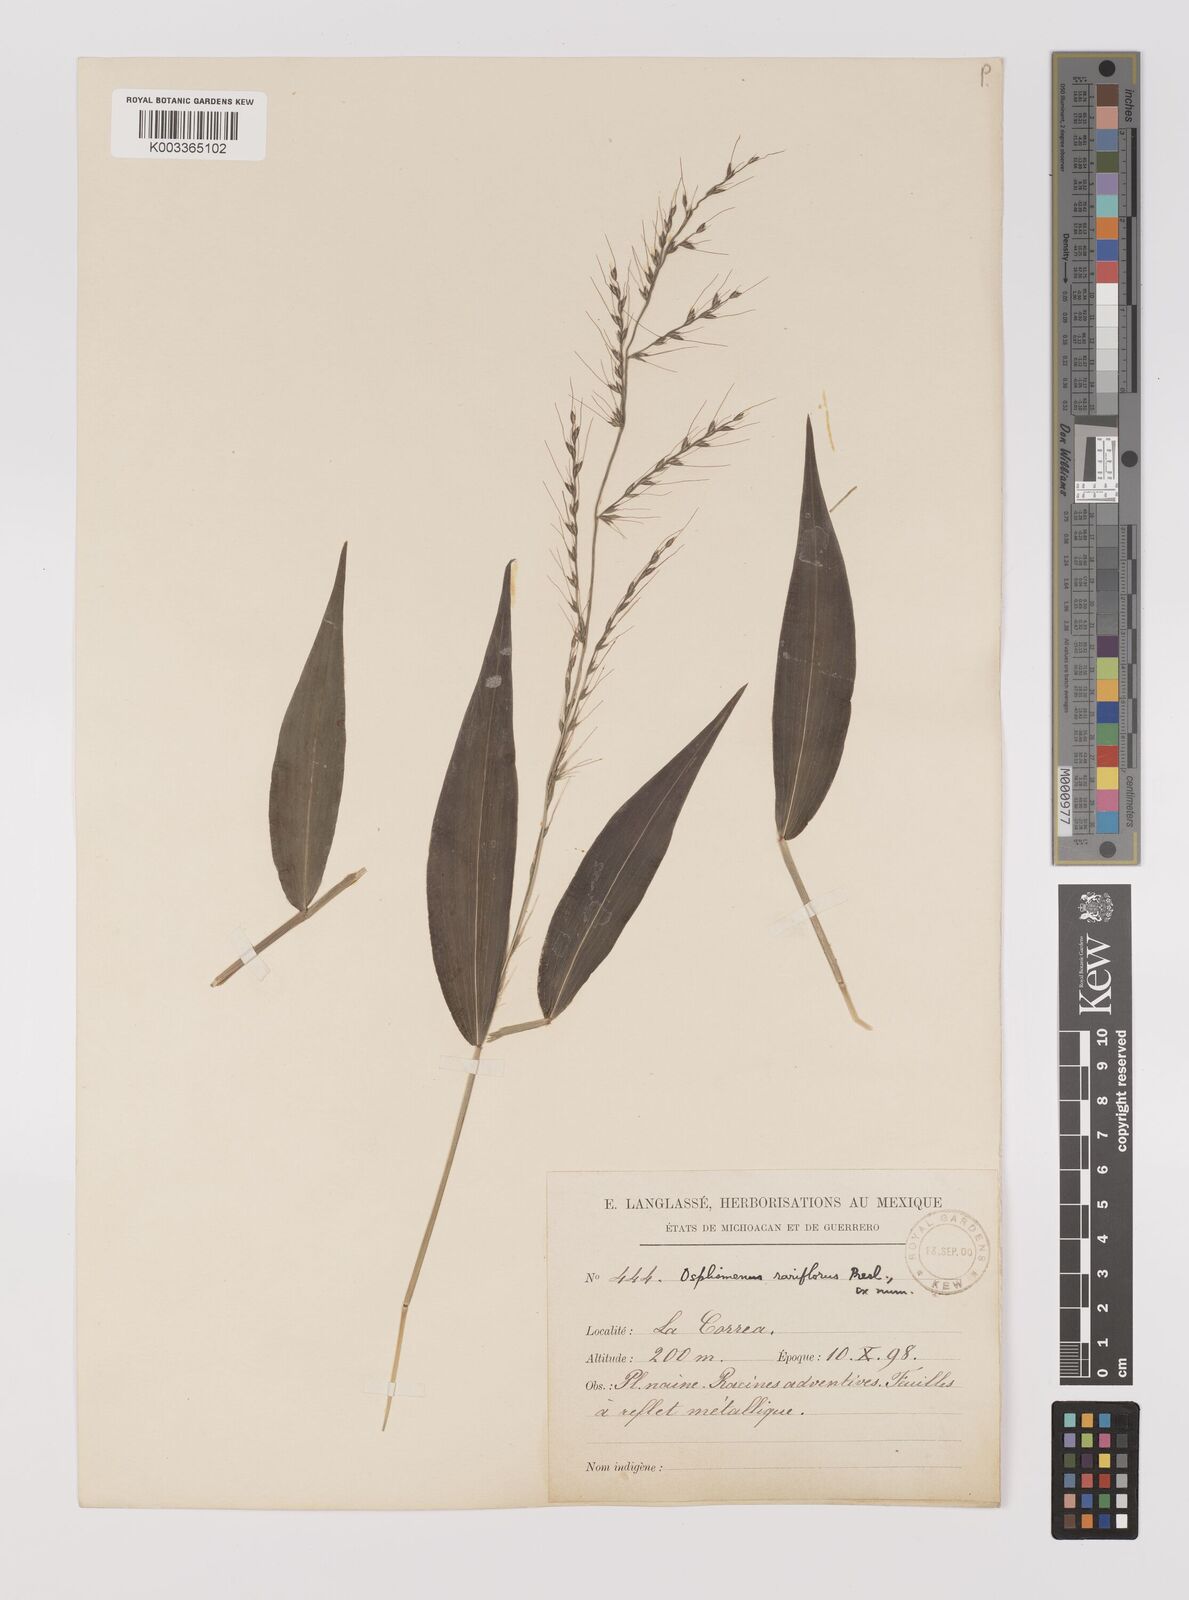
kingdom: Plantae
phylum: Tracheophyta
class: Liliopsida
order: Poales
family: Poaceae
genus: Oplismenus
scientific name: Oplismenus compositus
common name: Running mountain grass
